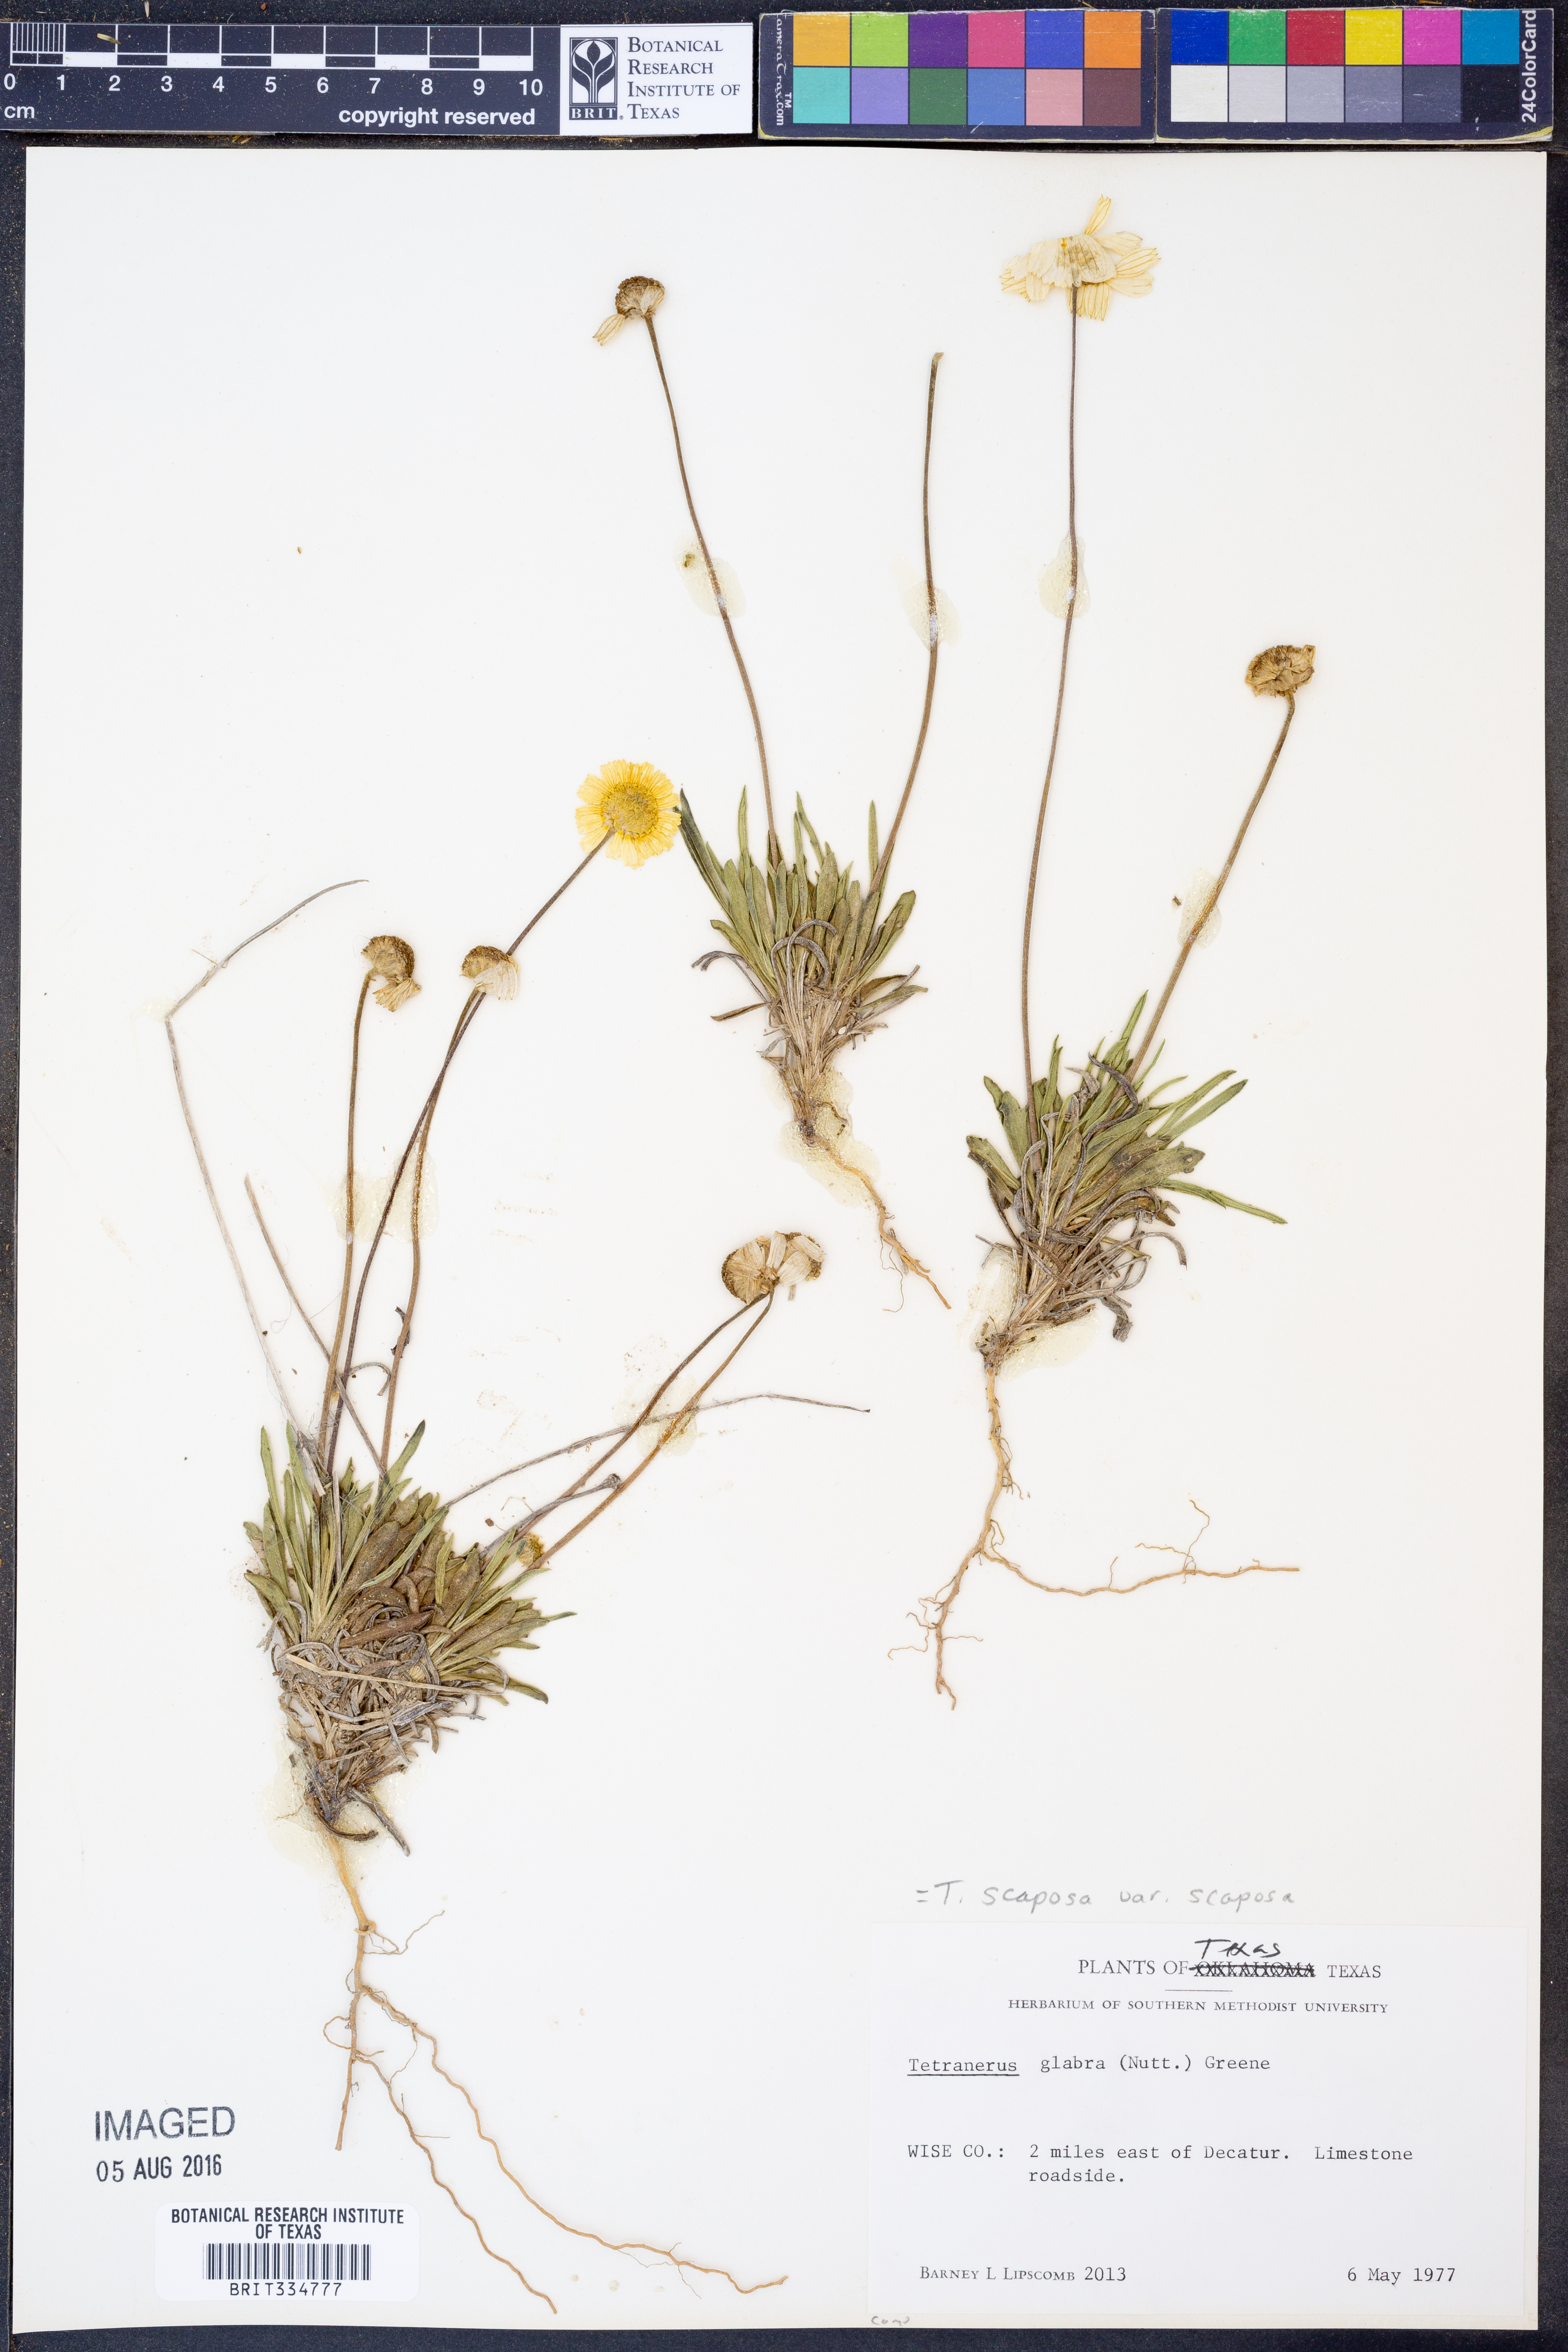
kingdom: Plantae
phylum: Tracheophyta
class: Magnoliopsida
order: Asterales
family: Asteraceae
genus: Tetraneuris
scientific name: Tetraneuris scaposa
